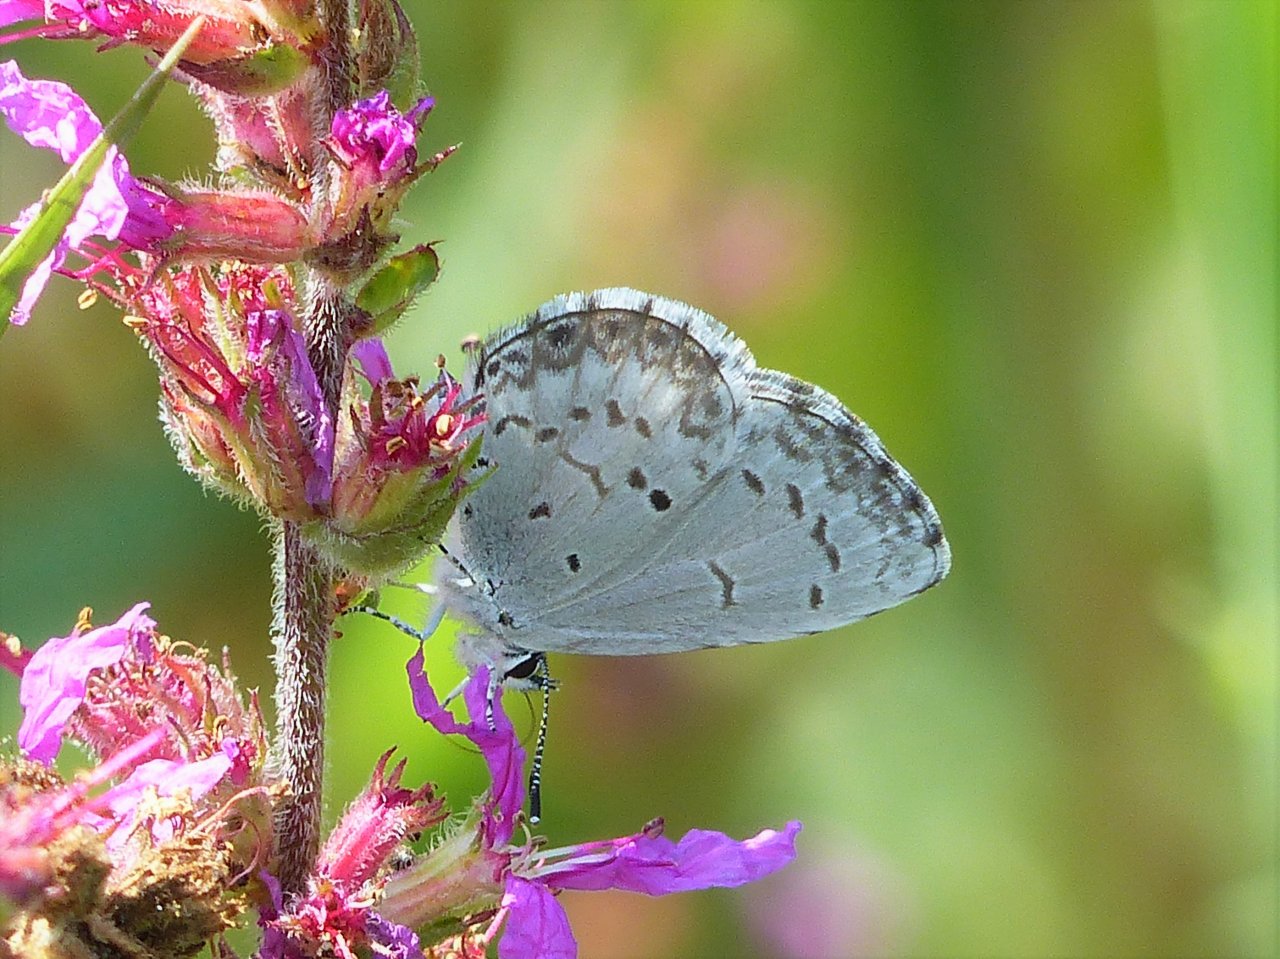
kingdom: Animalia
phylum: Arthropoda
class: Insecta
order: Lepidoptera
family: Lycaenidae
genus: Celastrina
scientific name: Celastrina lucia
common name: Northern Spring Azure
